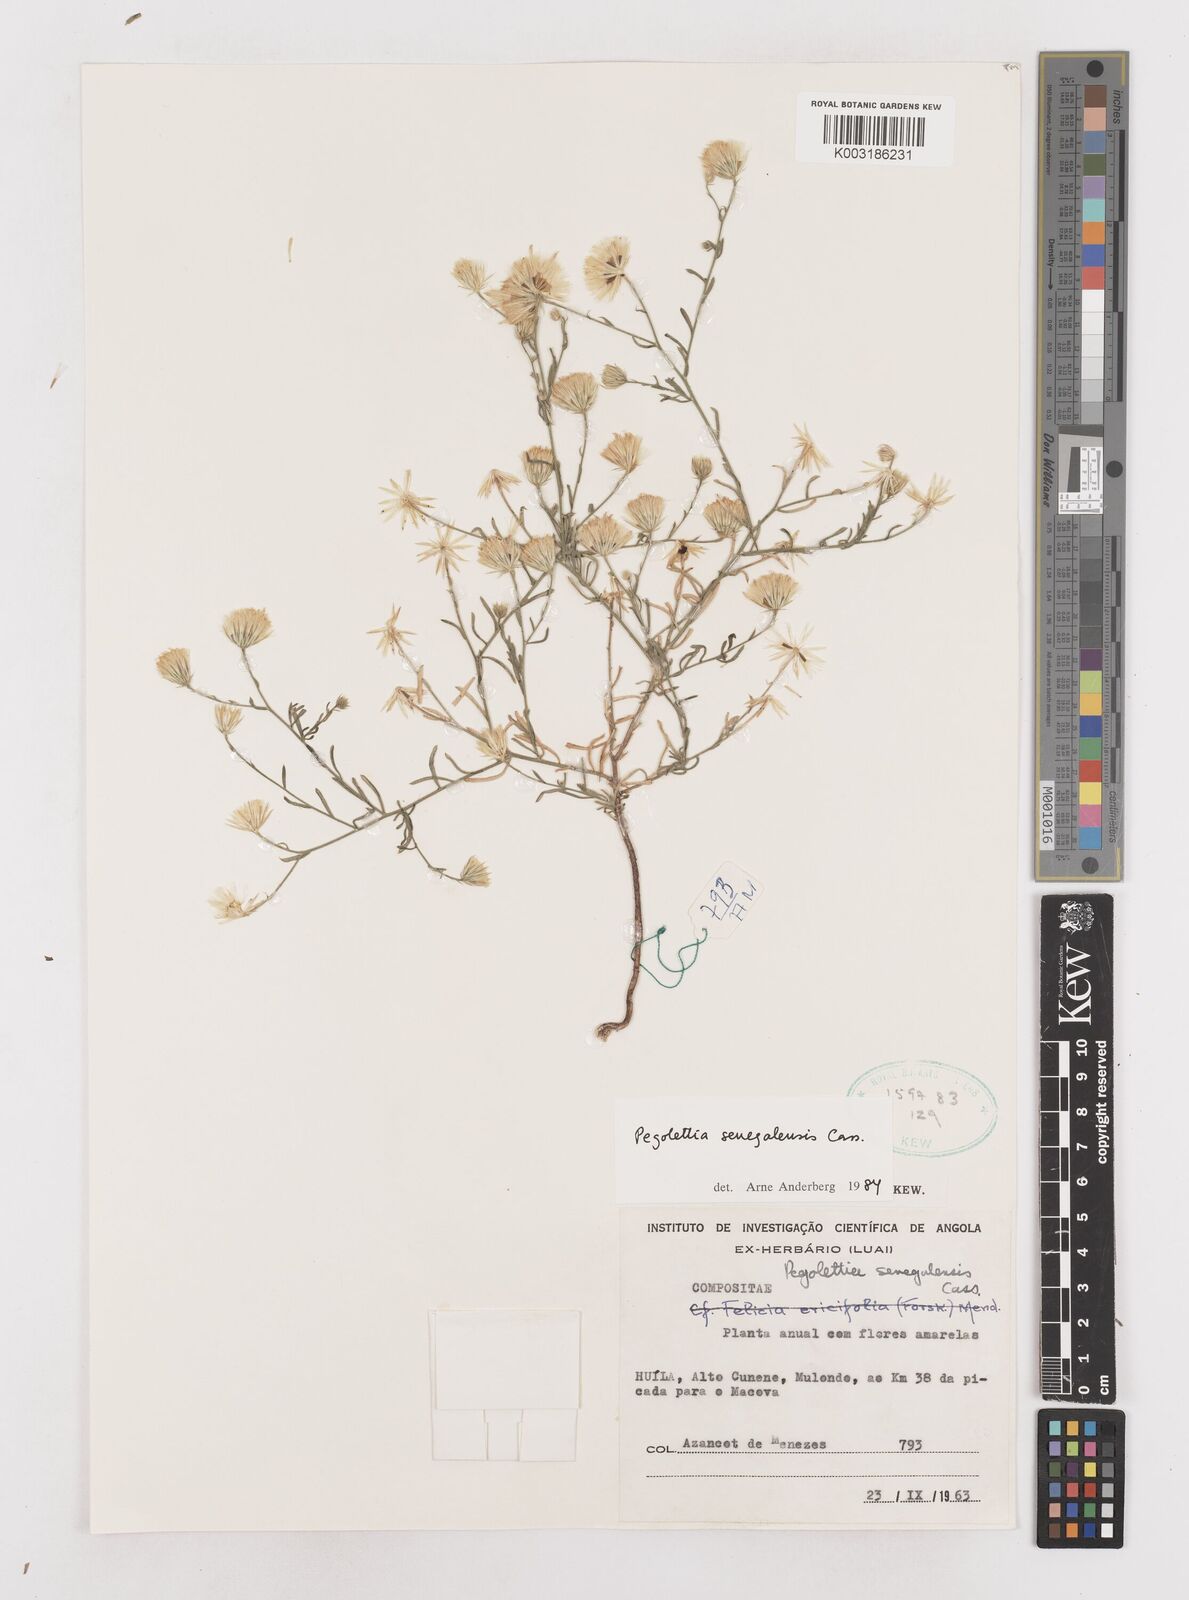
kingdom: Plantae
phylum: Tracheophyta
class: Magnoliopsida
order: Asterales
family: Asteraceae
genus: Pegolettia
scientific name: Pegolettia senegalensis
